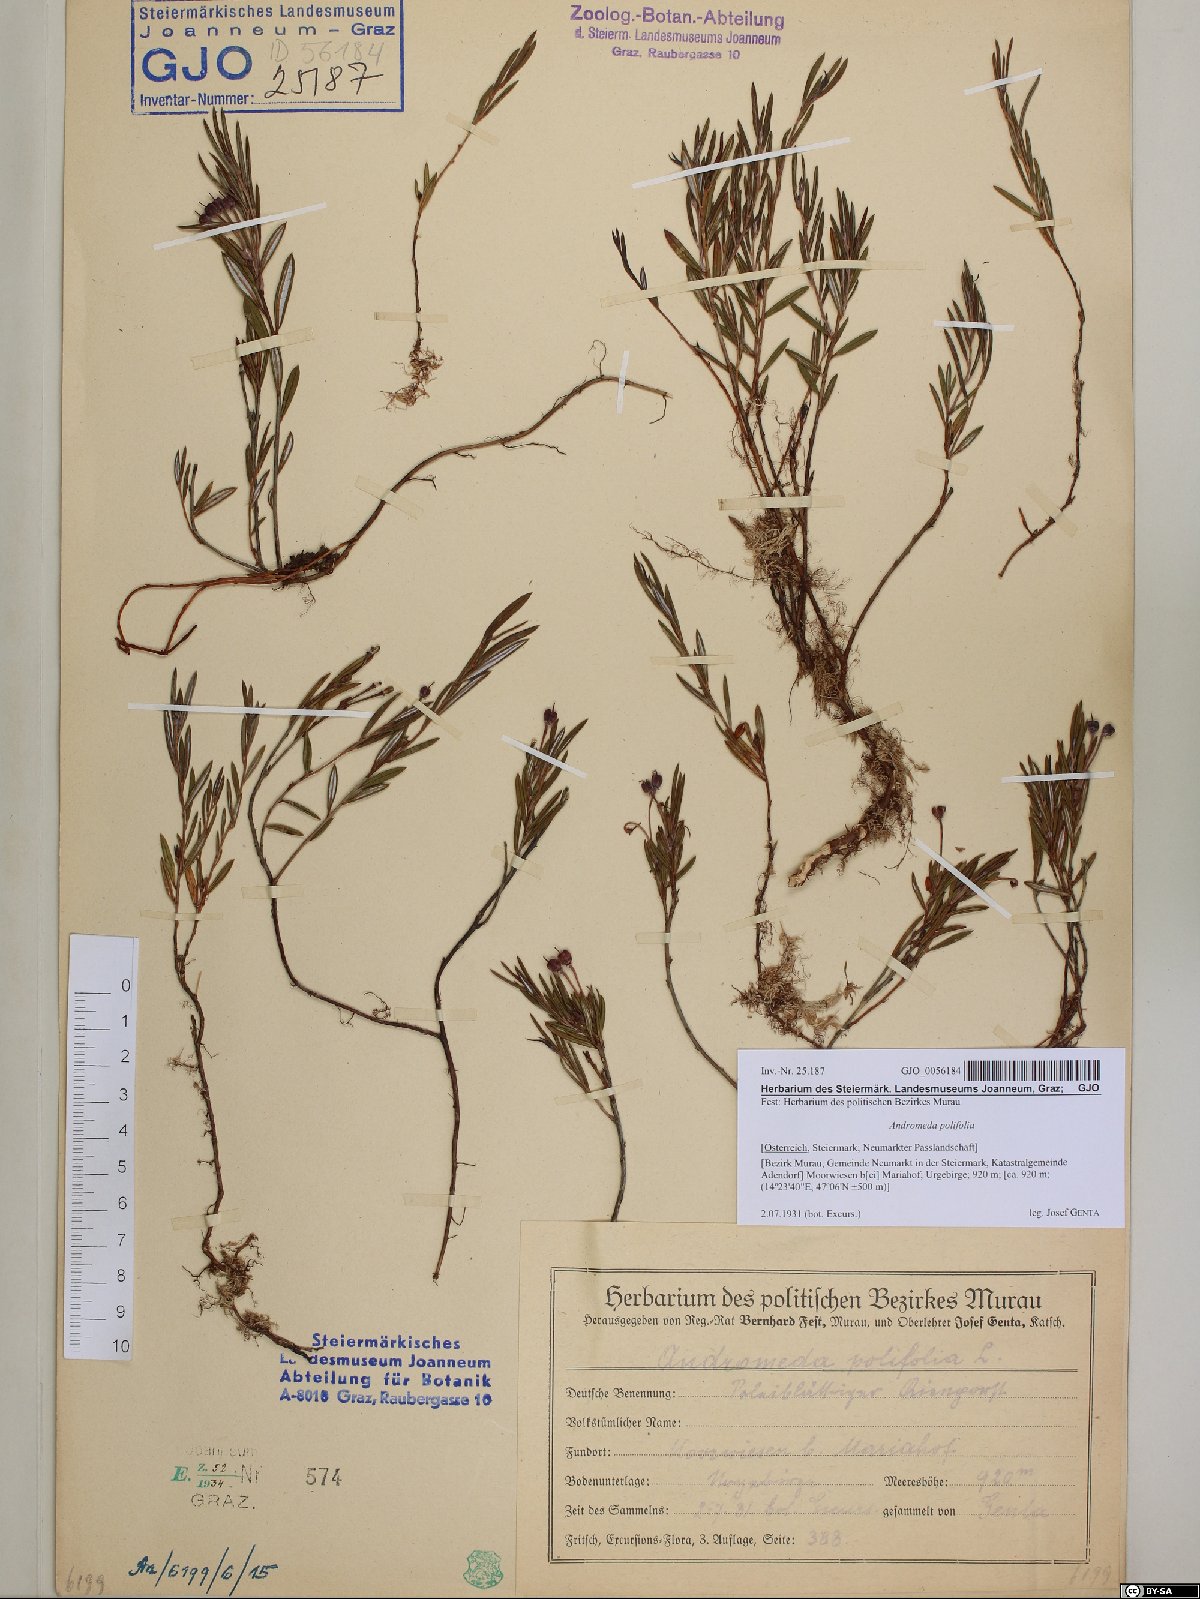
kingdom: Plantae
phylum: Tracheophyta
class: Magnoliopsida
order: Ericales
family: Ericaceae
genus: Andromeda
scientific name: Andromeda polifolia
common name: Bog-rosemary
